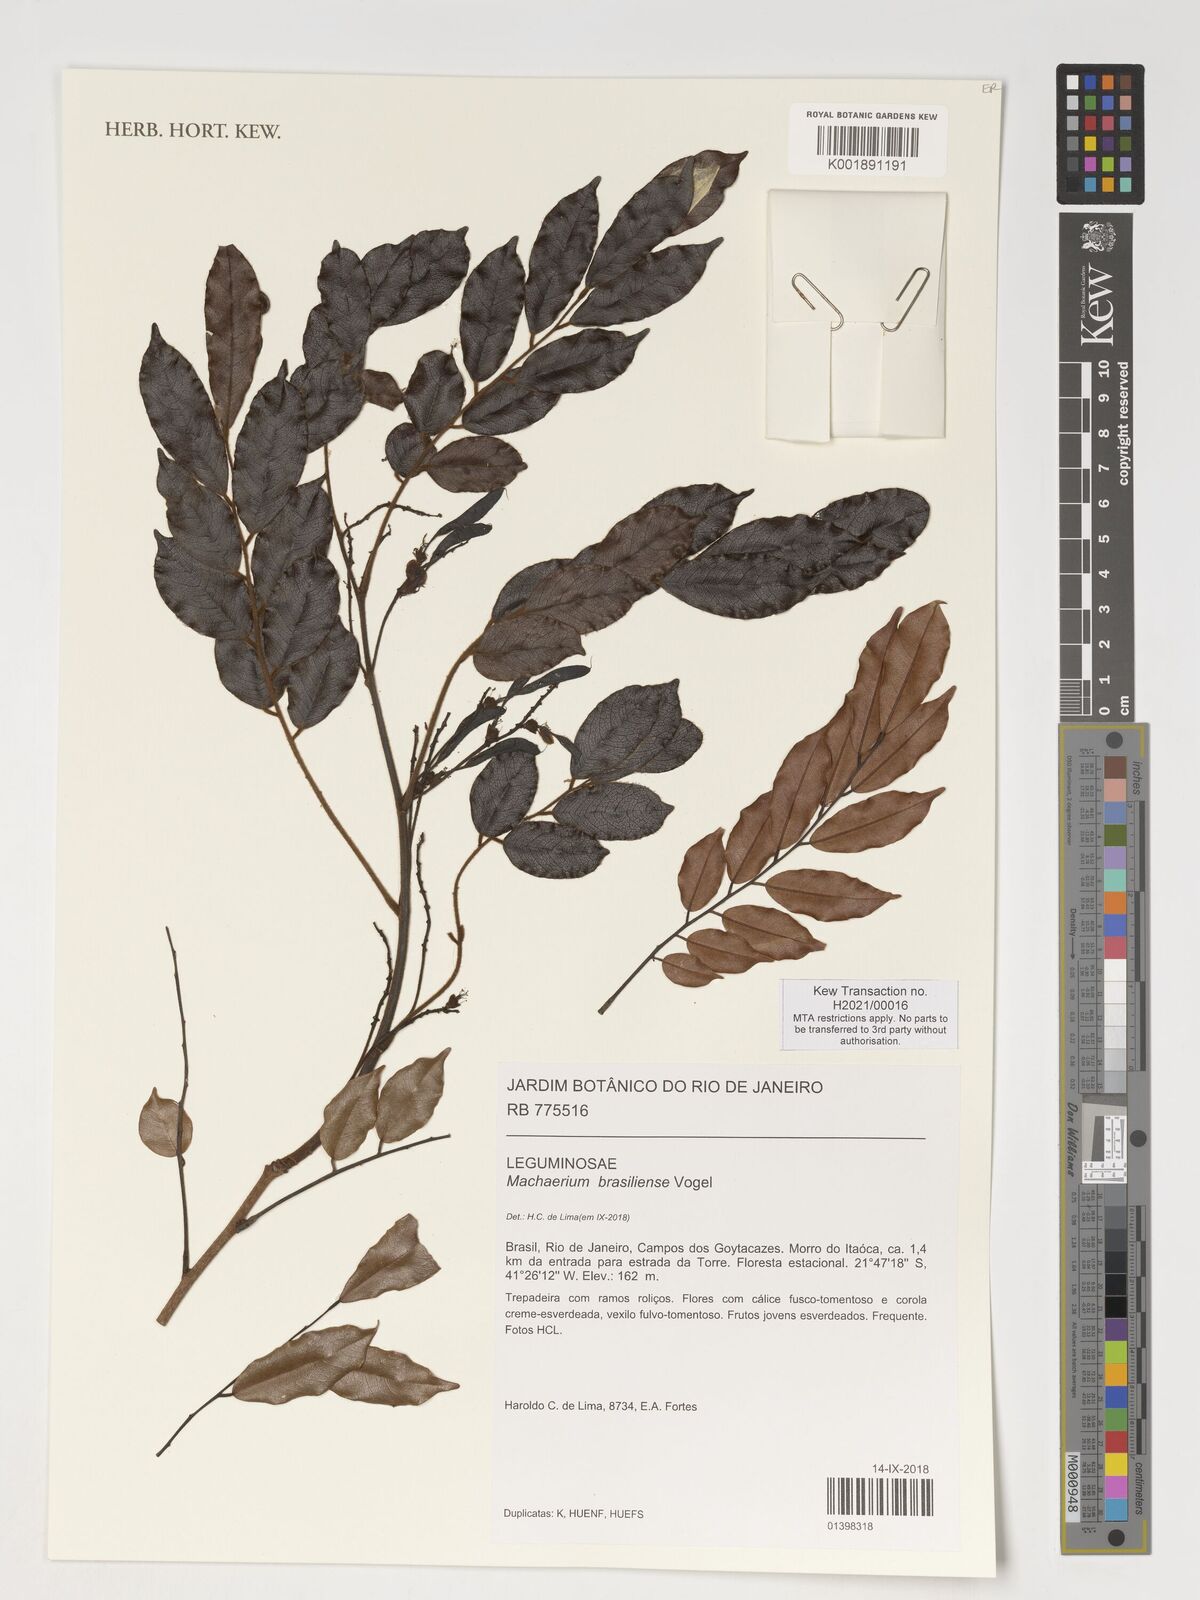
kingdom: Plantae
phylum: Tracheophyta
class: Magnoliopsida
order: Fabales
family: Fabaceae
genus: Machaerium
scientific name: Machaerium brasiliense
